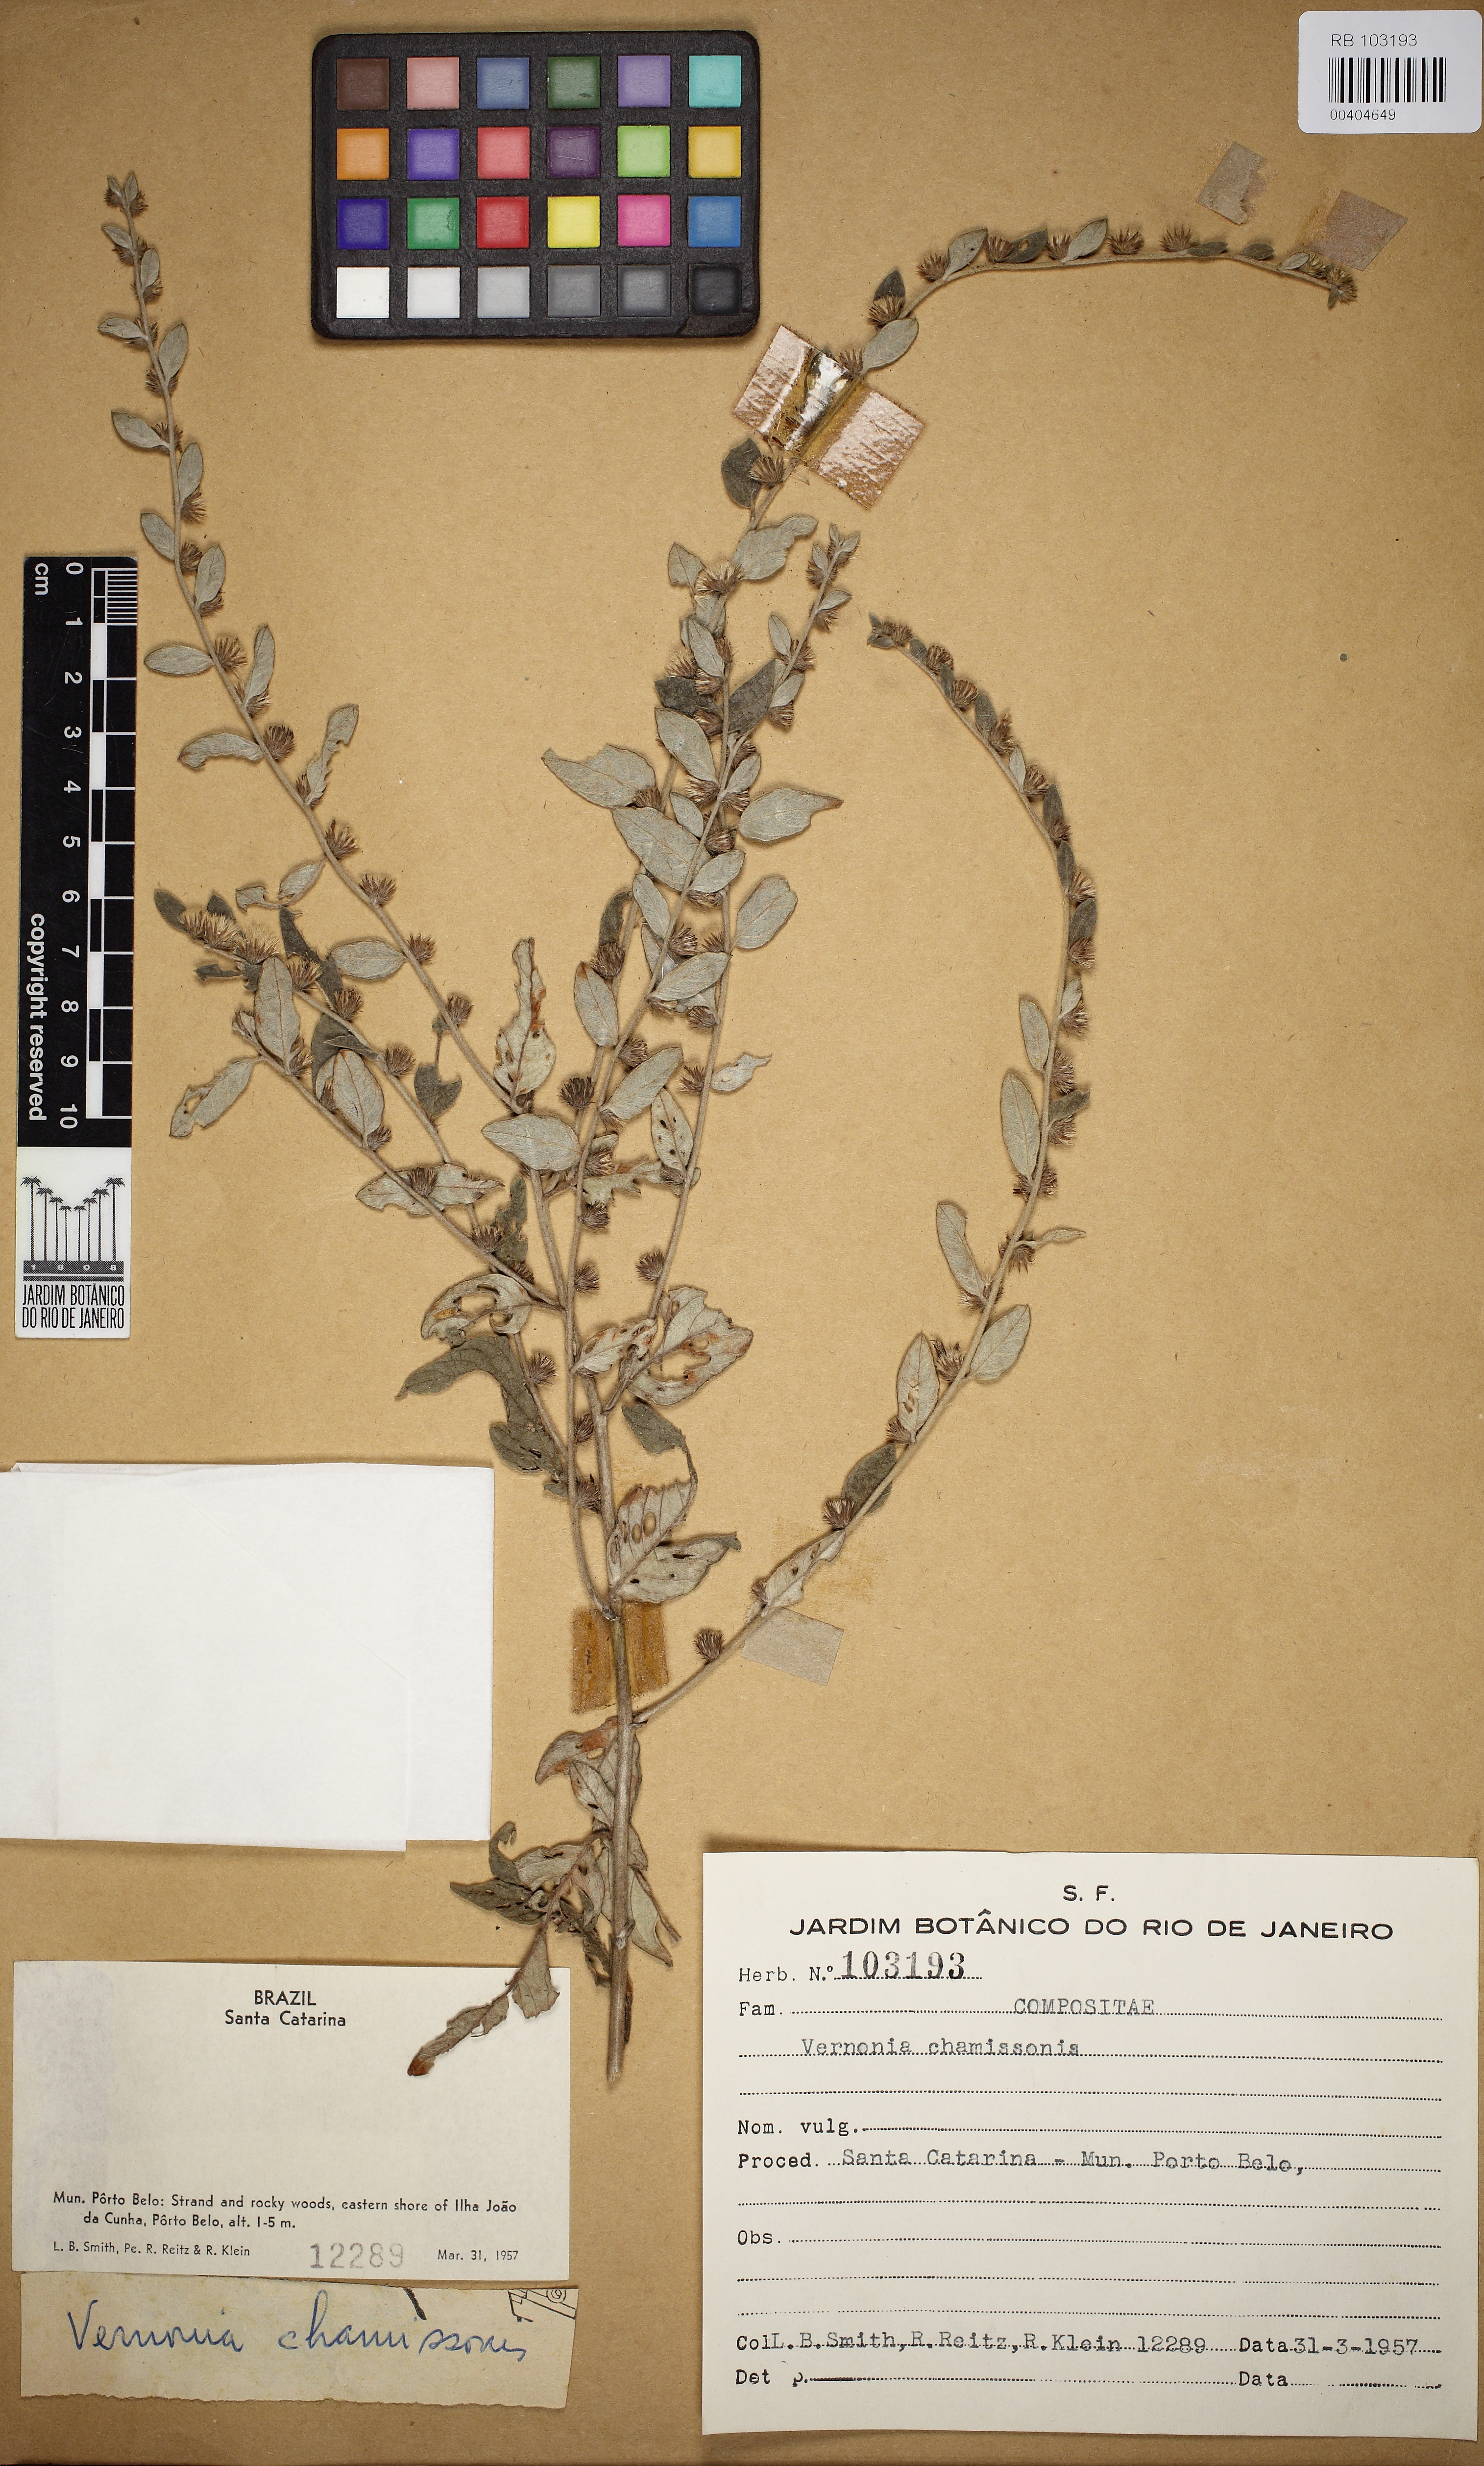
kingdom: Plantae
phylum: Tracheophyta
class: Magnoliopsida
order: Asterales
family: Asteraceae
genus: Lepidaploa
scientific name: Lepidaploa chamissonis
